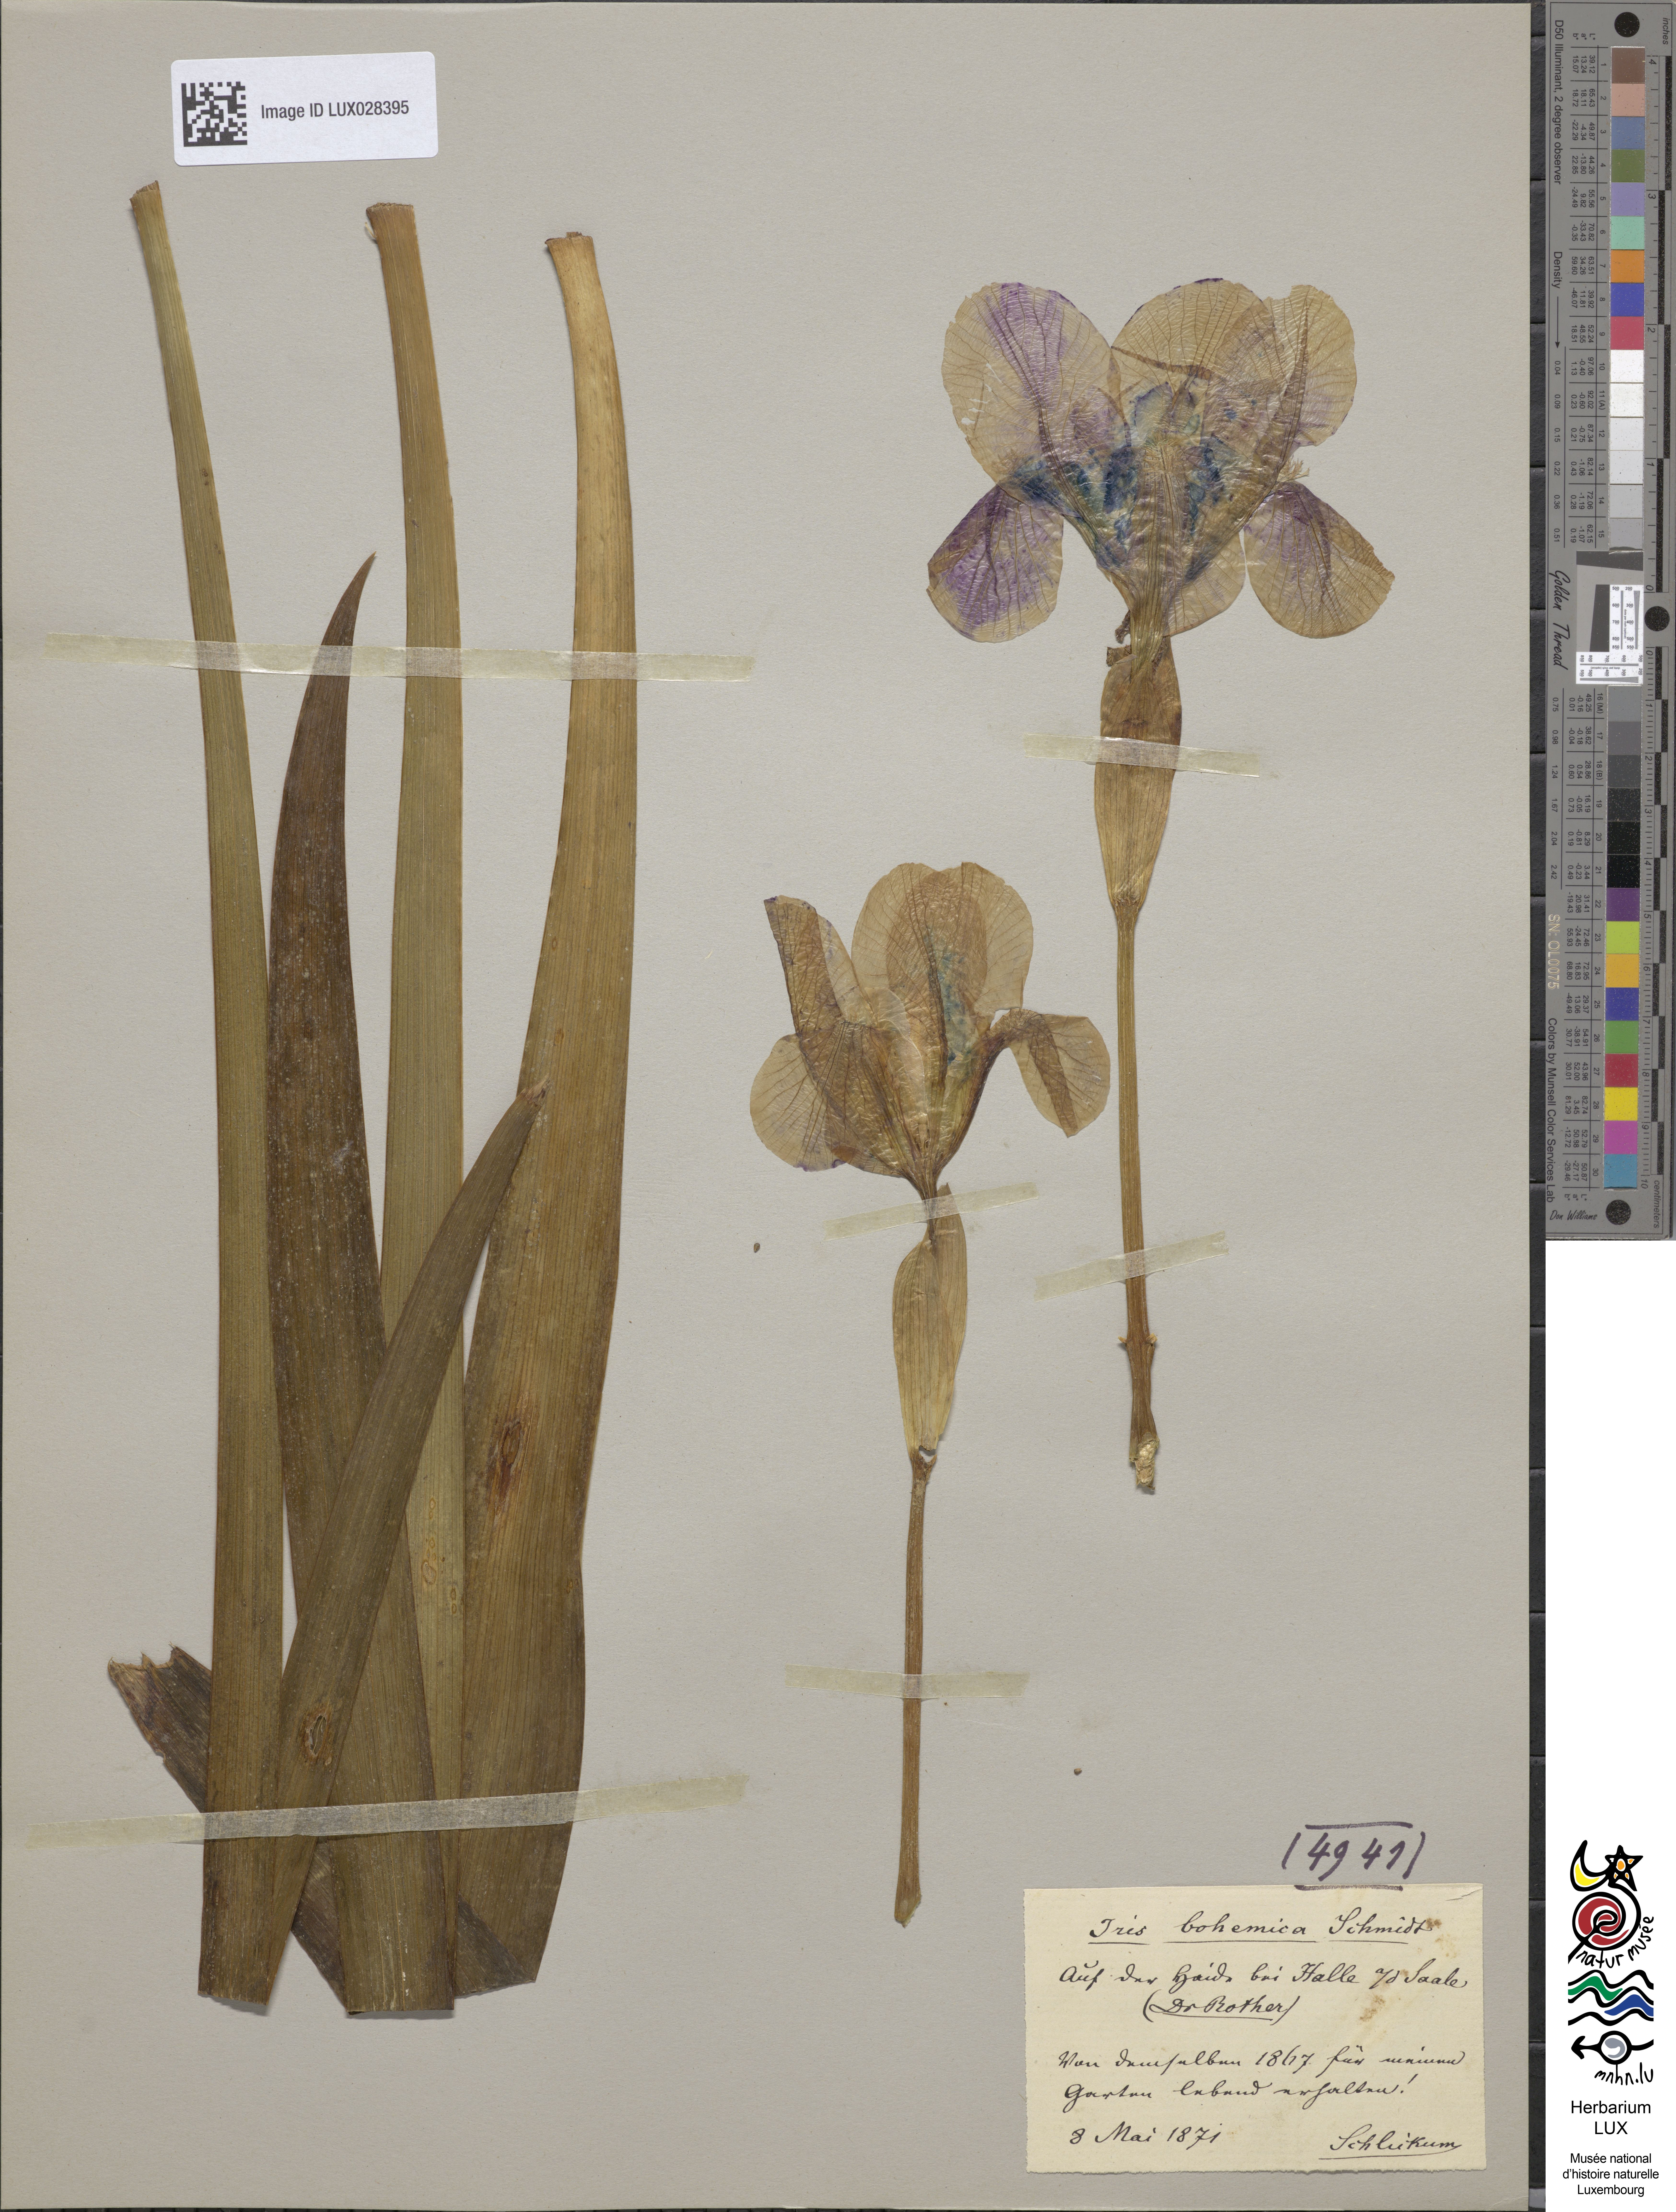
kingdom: Animalia
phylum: Arthropoda
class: Insecta
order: Mantodea
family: Eremiaphilidae
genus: Iris
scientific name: Iris
